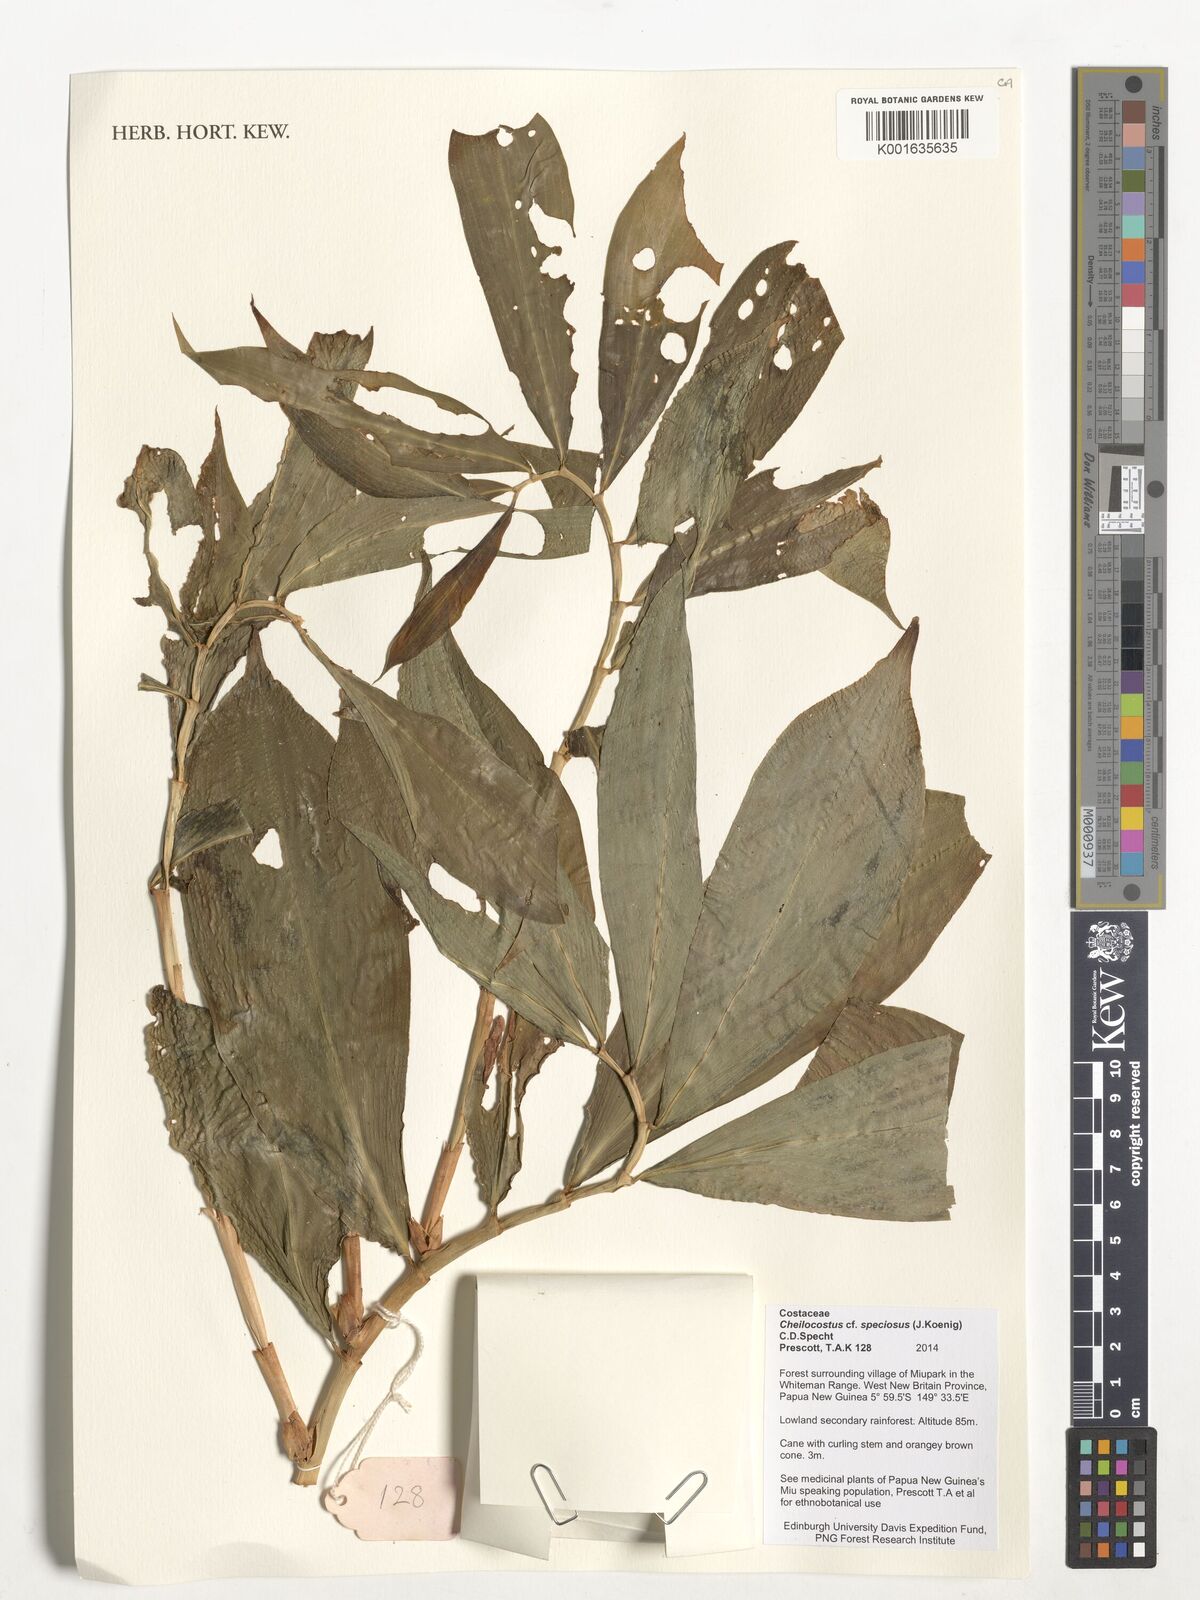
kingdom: Plantae
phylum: Tracheophyta
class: Liliopsida
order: Zingiberales
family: Costaceae
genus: Hellenia
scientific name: Hellenia speciosa
